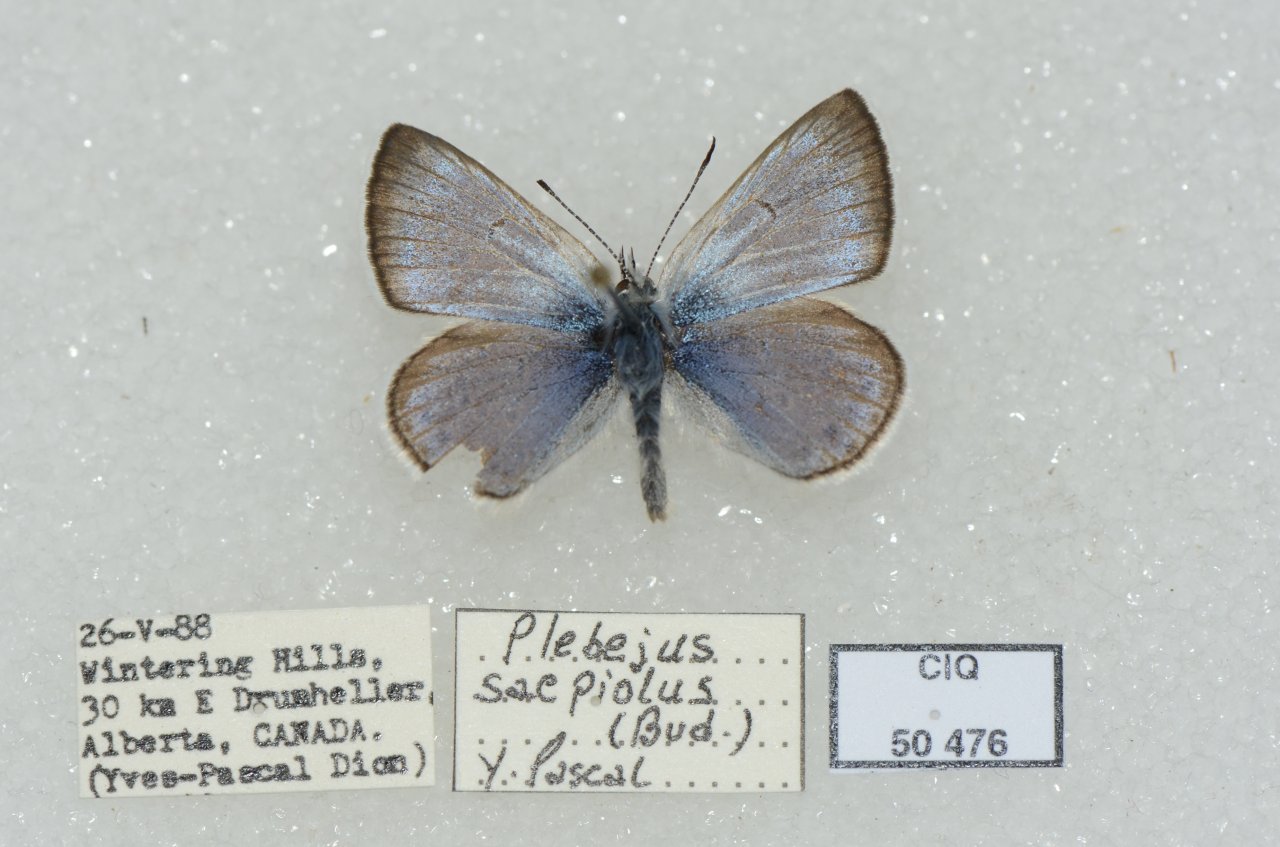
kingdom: Animalia
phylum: Arthropoda
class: Insecta
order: Lepidoptera
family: Lycaenidae
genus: Plebejus
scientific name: Plebejus saepiolus
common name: Greenish Blue
